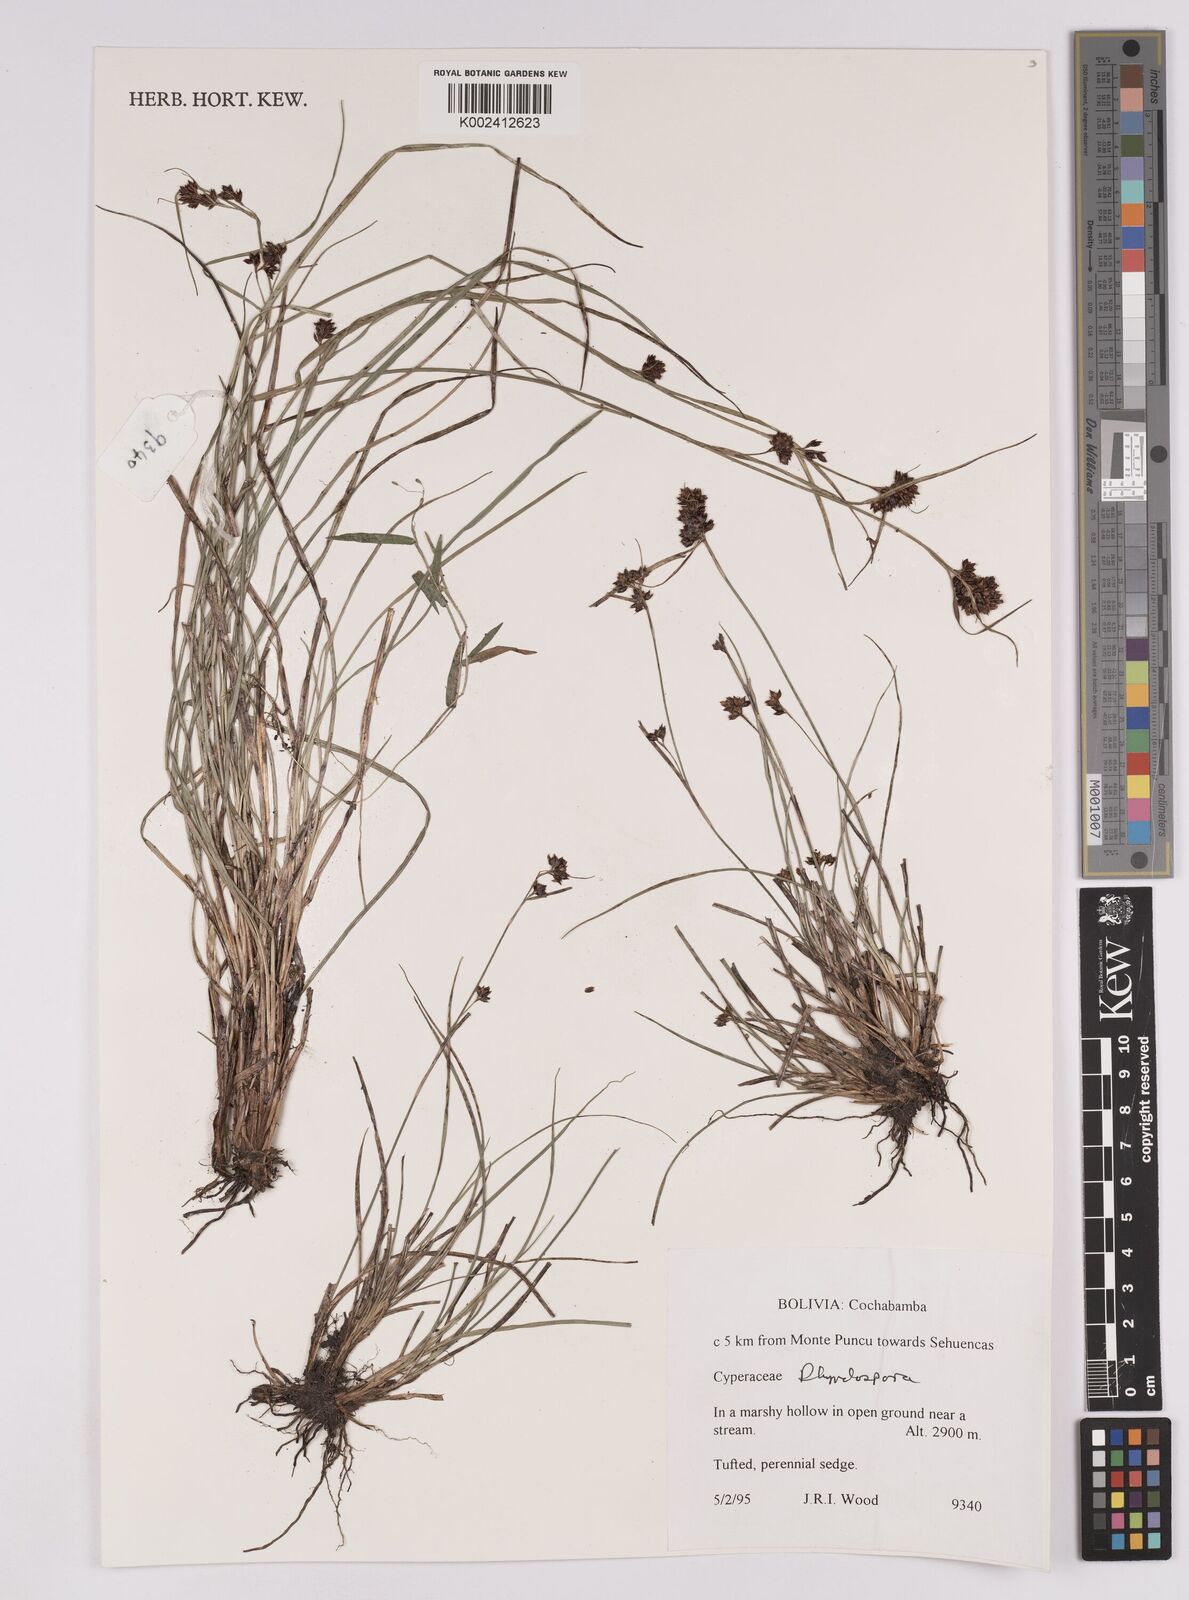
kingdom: Plantae
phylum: Tracheophyta
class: Liliopsida
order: Poales
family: Cyperaceae
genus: Rhynchospora
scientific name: Rhynchospora
